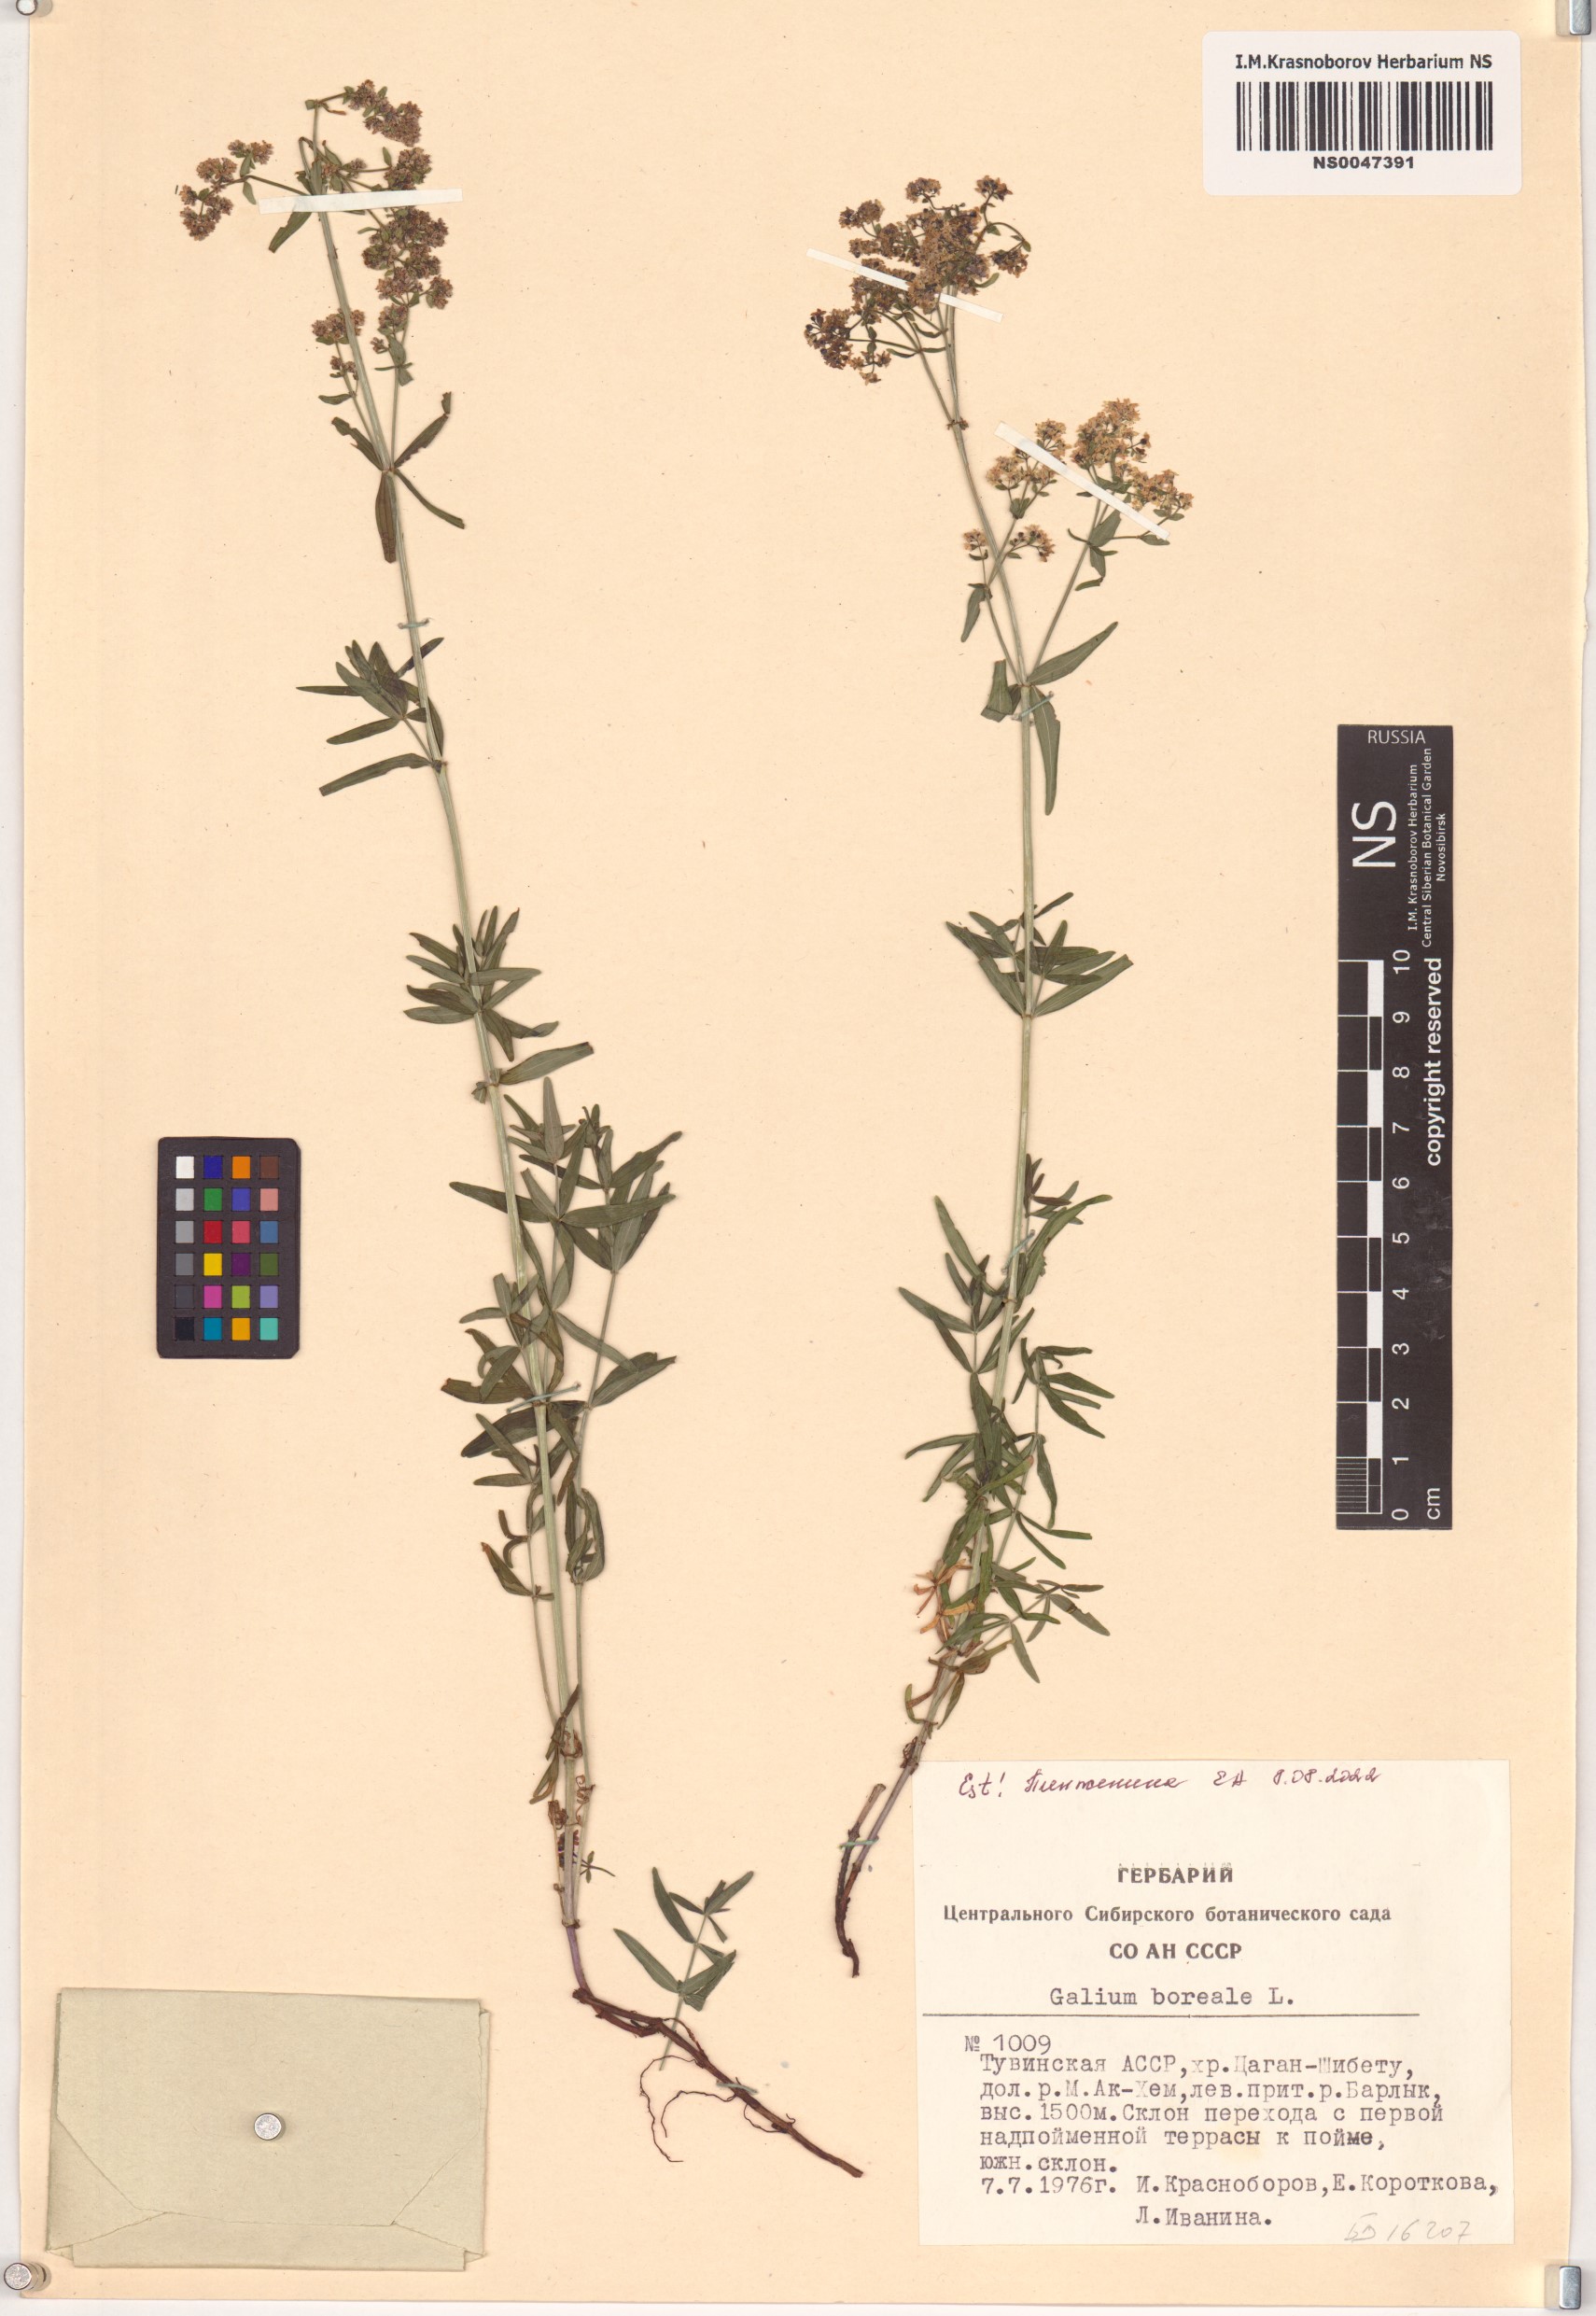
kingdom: Plantae
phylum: Tracheophyta
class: Magnoliopsida
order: Gentianales
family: Rubiaceae
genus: Galium
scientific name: Galium boreale
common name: Northern bedstraw
